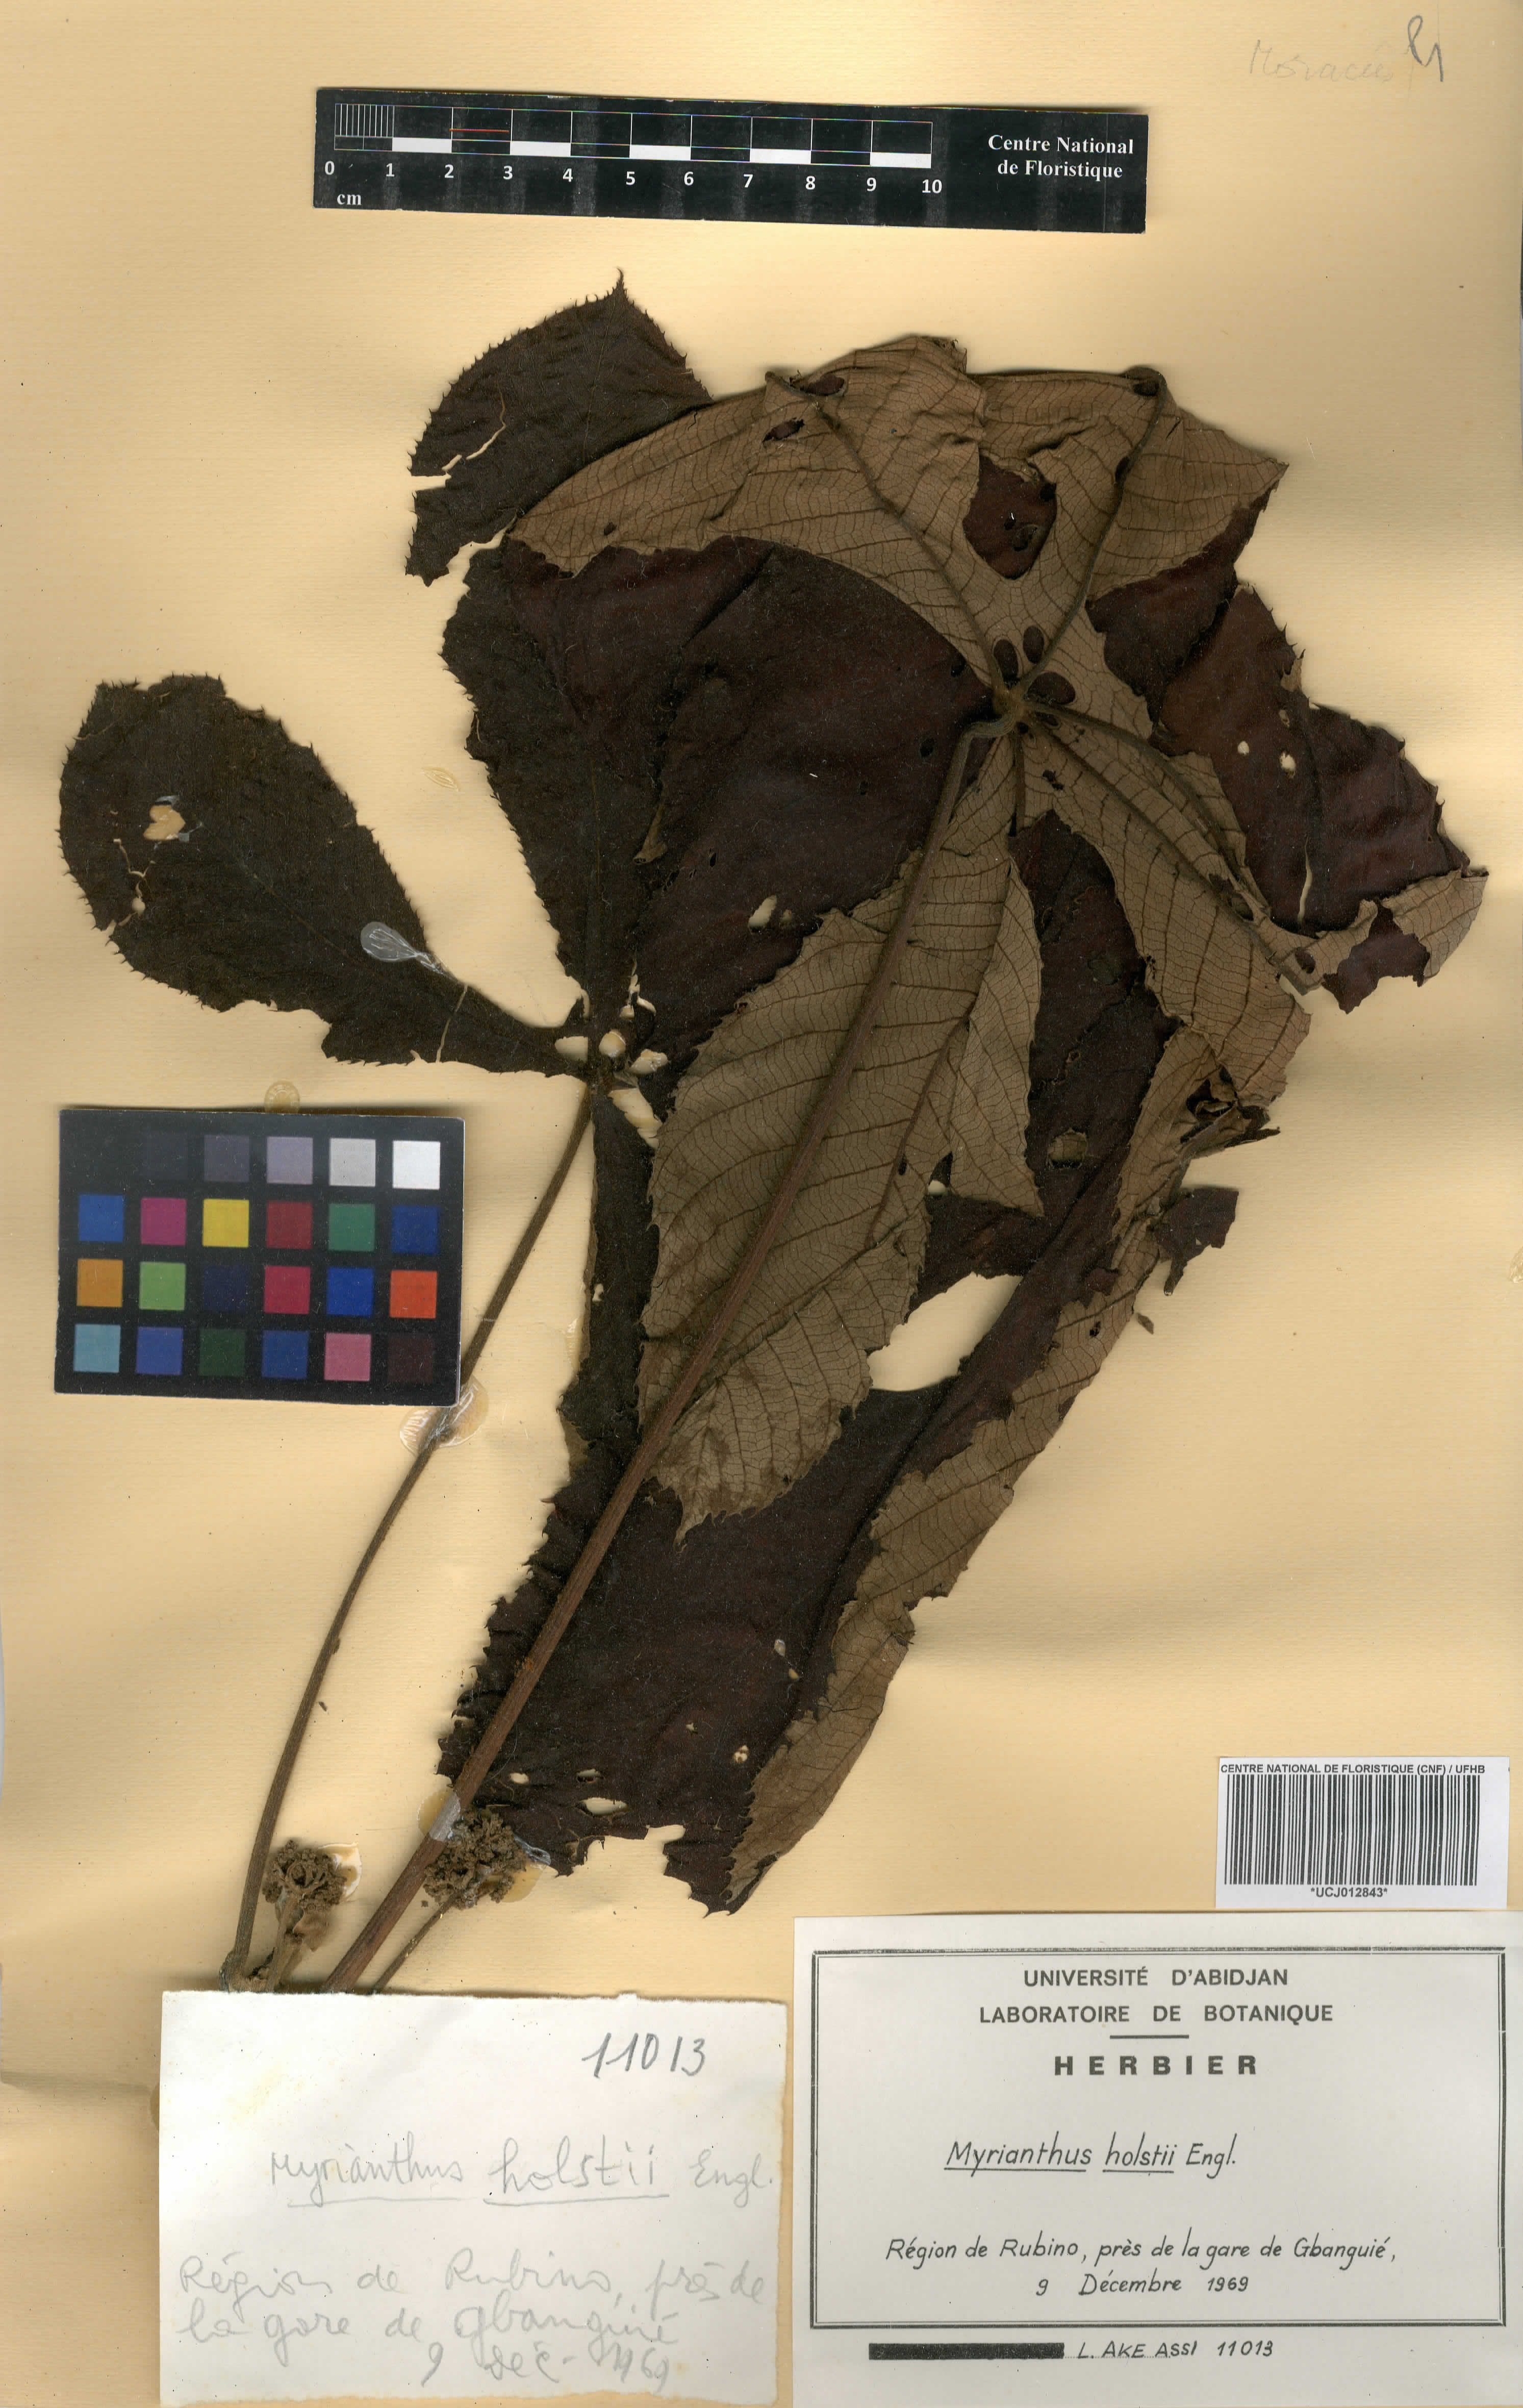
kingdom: Plantae
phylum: Tracheophyta
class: Magnoliopsida
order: Rosales
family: Urticaceae
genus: Myrianthus
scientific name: Myrianthus holstii
